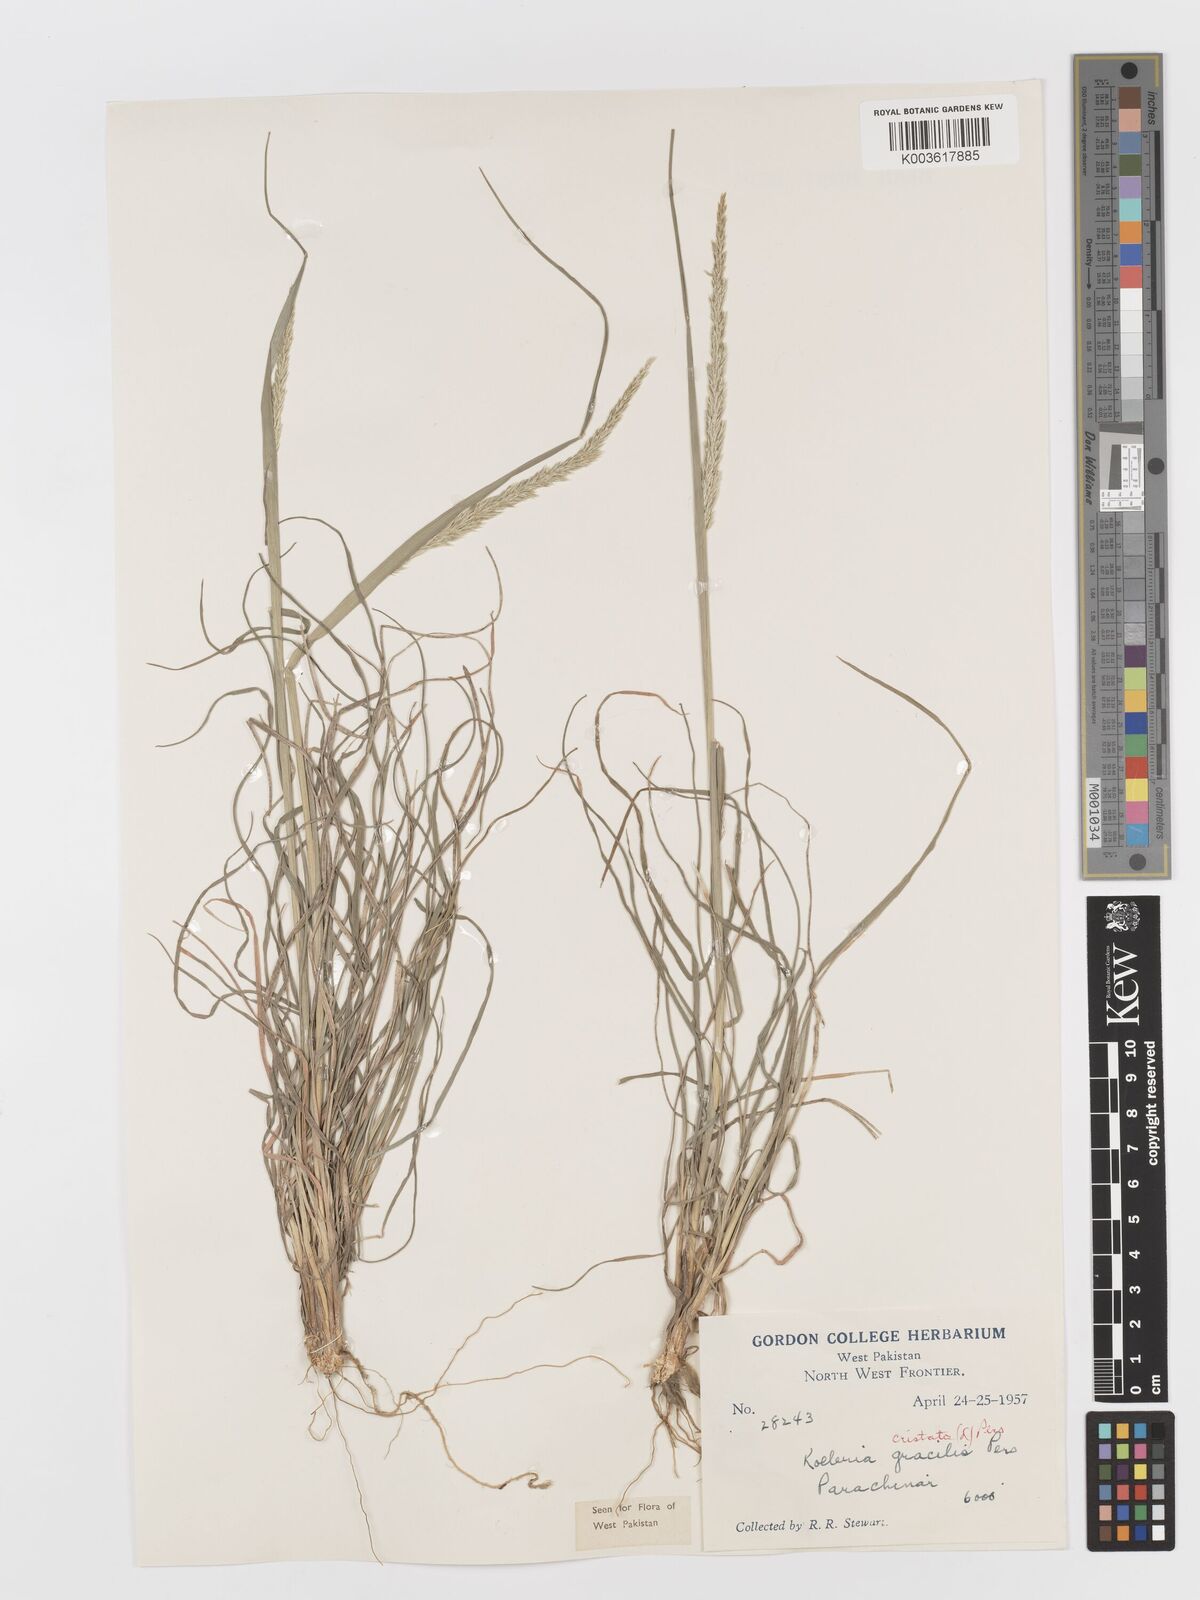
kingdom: Plantae
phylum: Tracheophyta
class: Liliopsida
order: Poales
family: Poaceae
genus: Koeleria
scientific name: Koeleria
